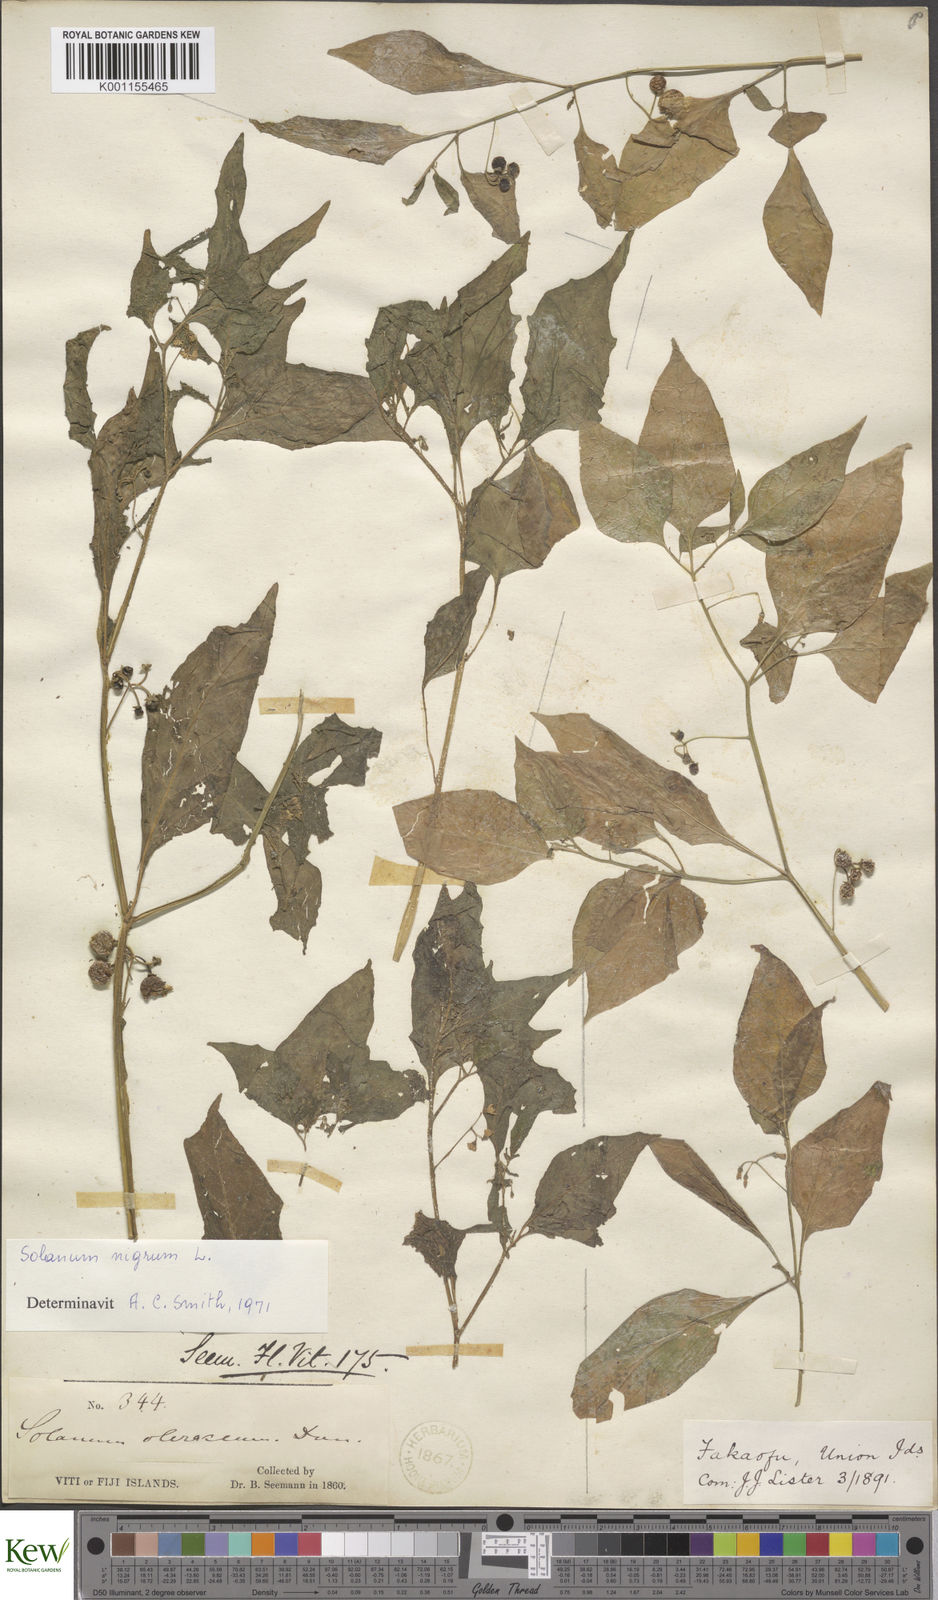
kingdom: Plantae
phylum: Tracheophyta
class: Magnoliopsida
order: Solanales
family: Solanaceae
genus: Solanum
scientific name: Solanum
